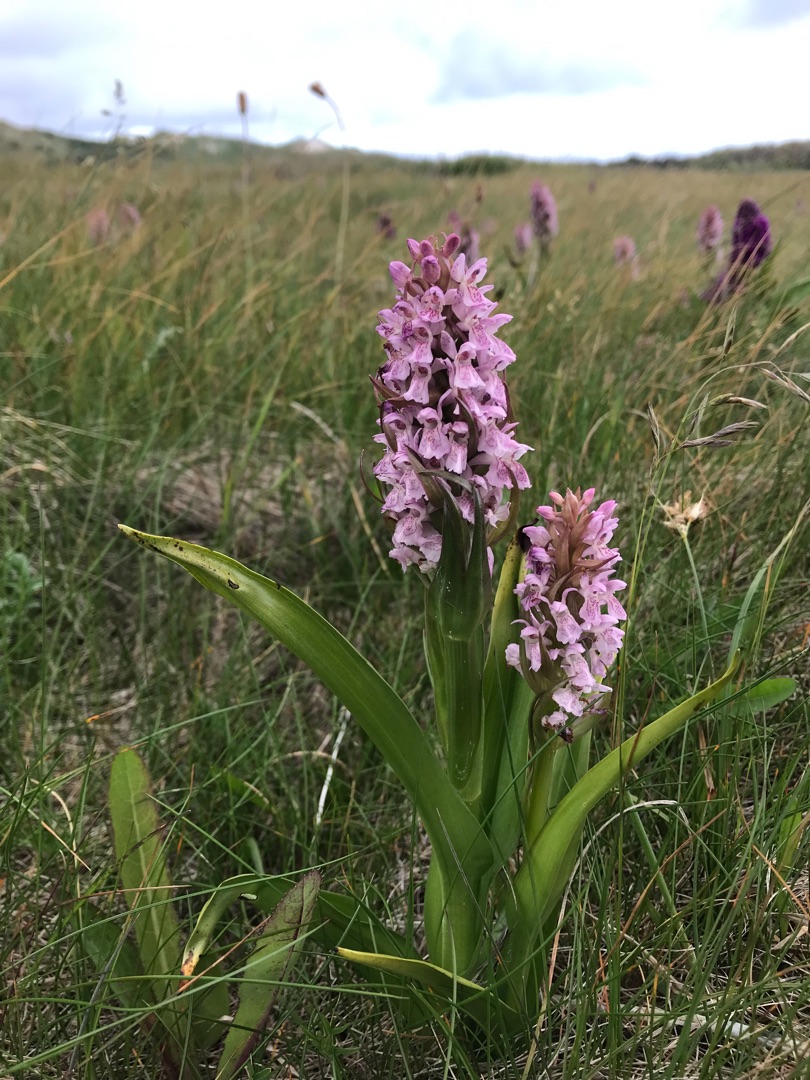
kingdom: Plantae
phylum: Tracheophyta
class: Liliopsida
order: Asparagales
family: Orchidaceae
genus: Dactylorhiza
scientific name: Dactylorhiza incarnata
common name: Kødfarvet gøgeurt
